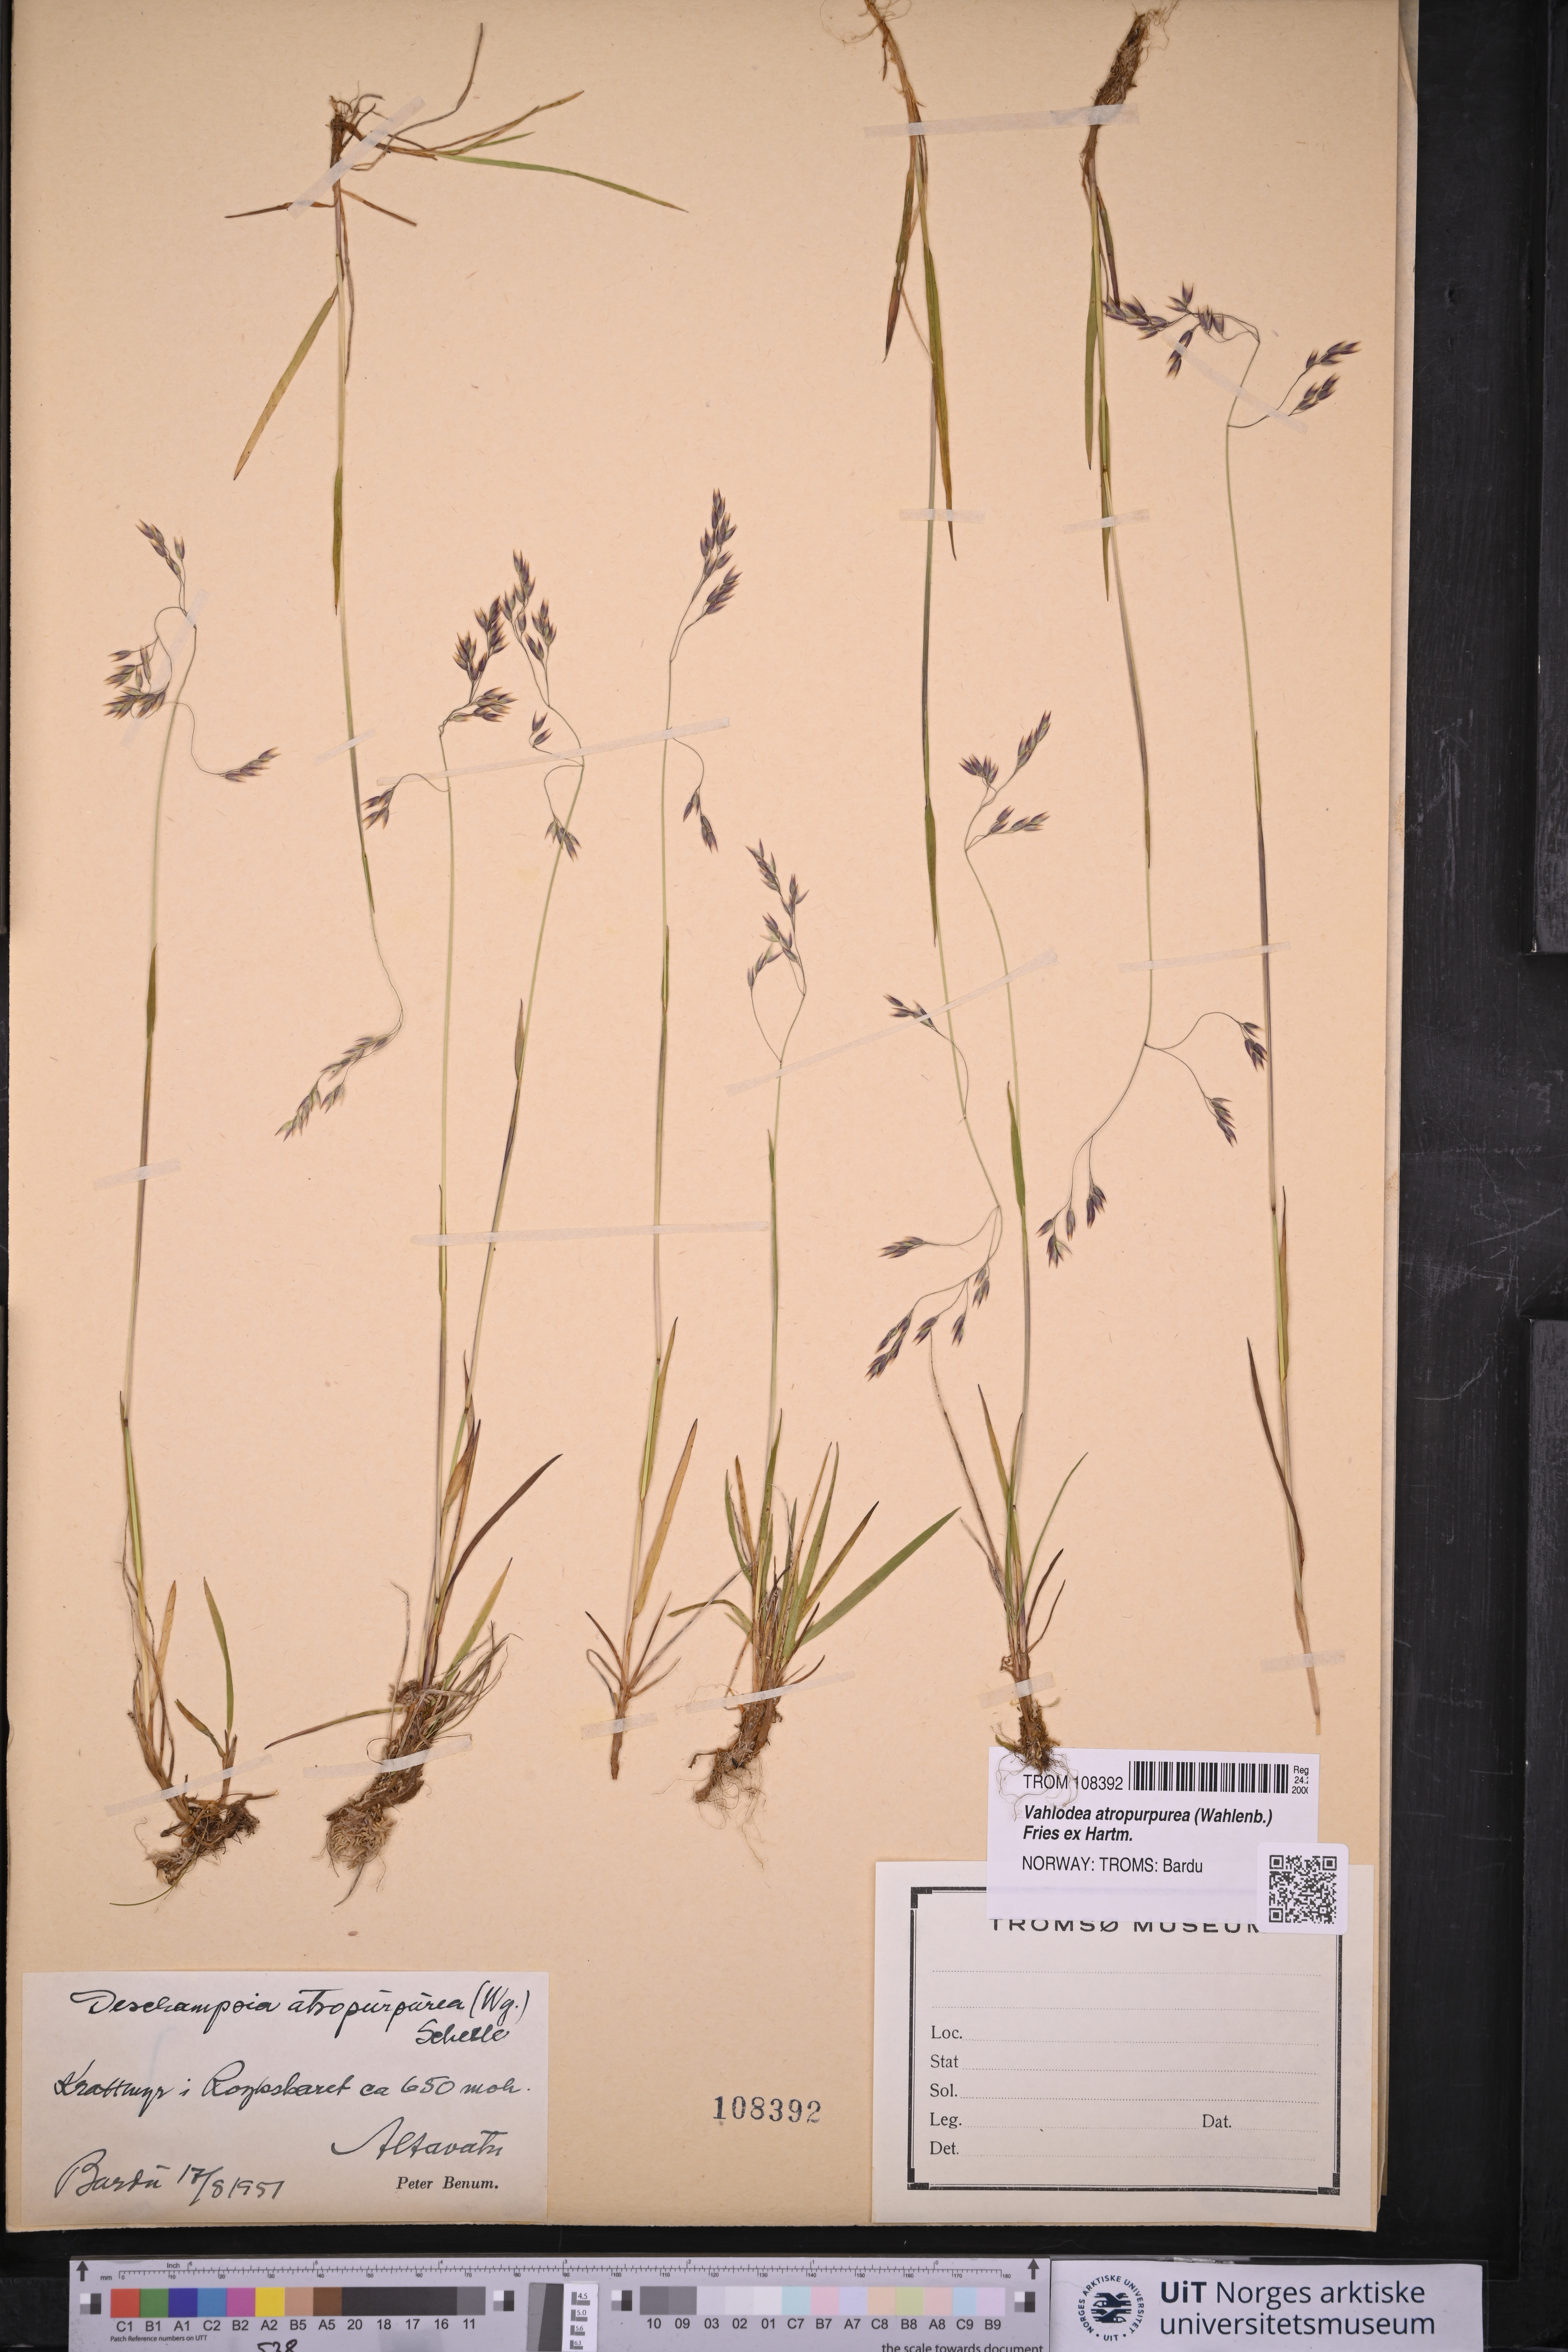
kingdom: Plantae
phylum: Tracheophyta
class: Liliopsida
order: Poales
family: Poaceae
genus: Vahlodea
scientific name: Vahlodea atropurpurea
